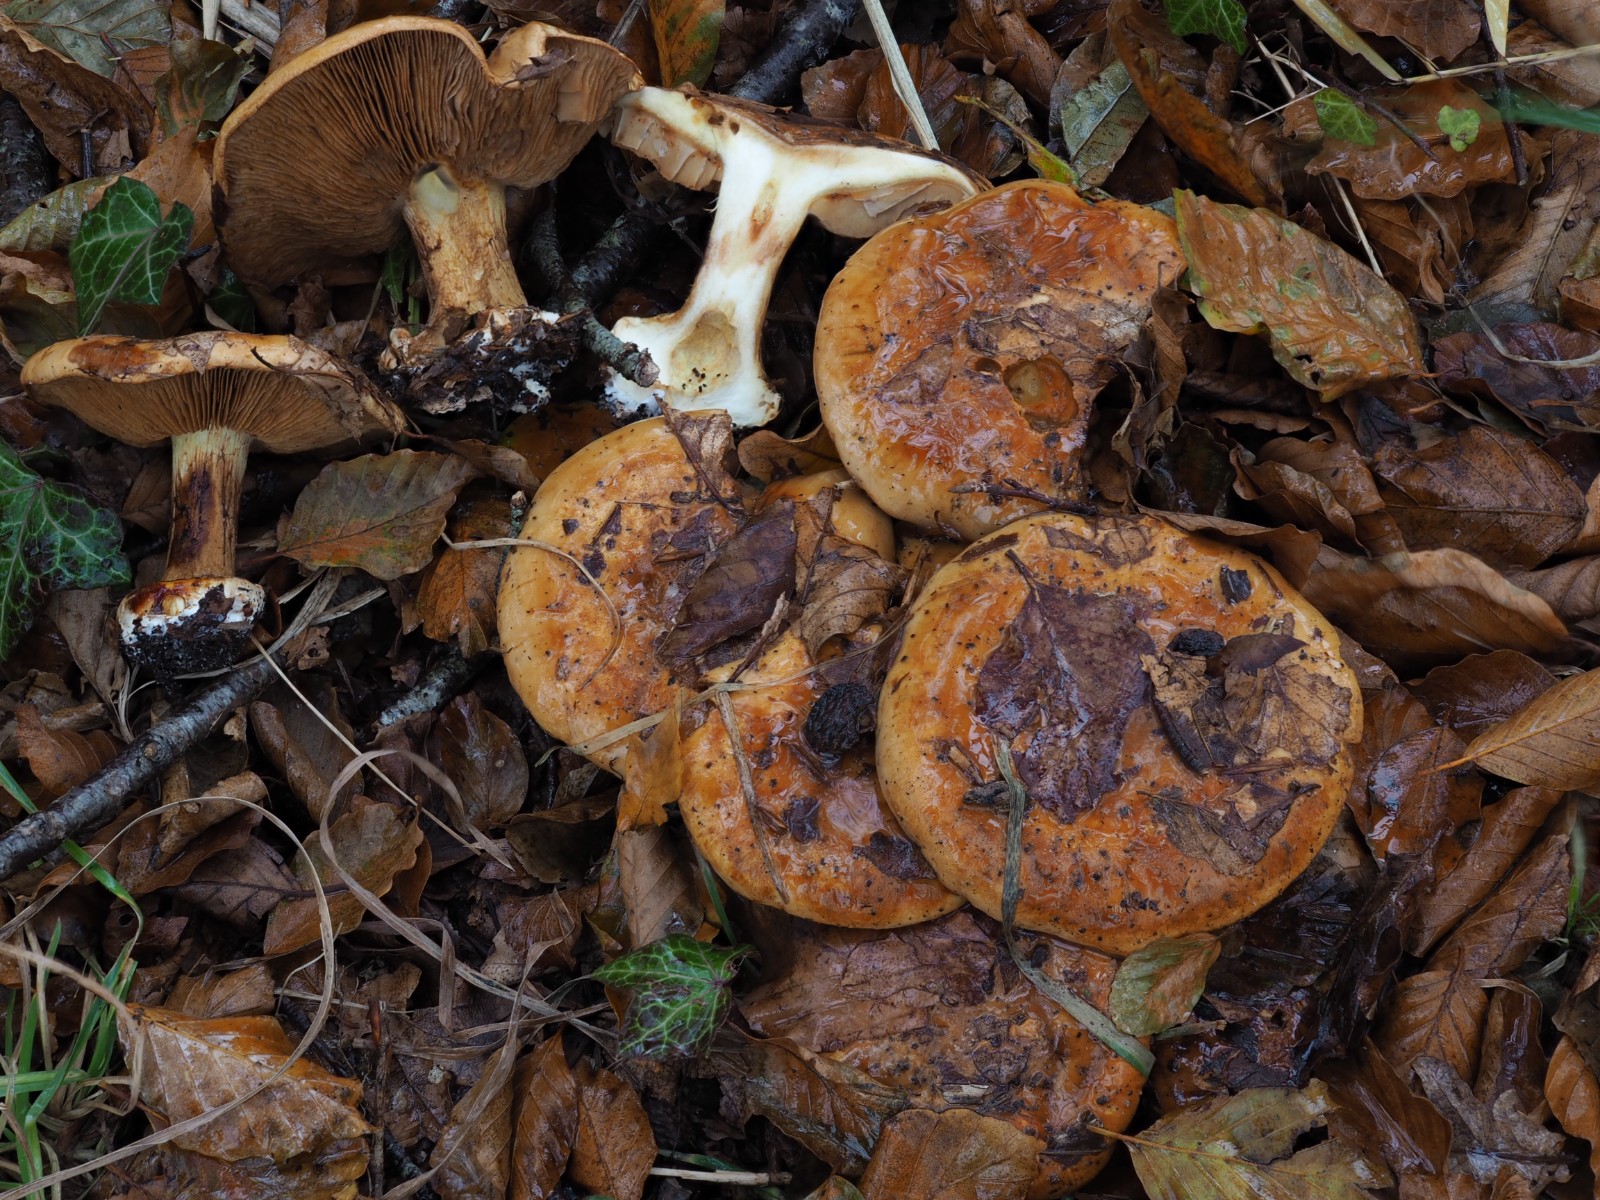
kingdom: Fungi
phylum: Basidiomycota
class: Agaricomycetes
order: Agaricales
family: Cortinariaceae
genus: Calonarius
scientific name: Calonarius humolens
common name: radise-slørhat
